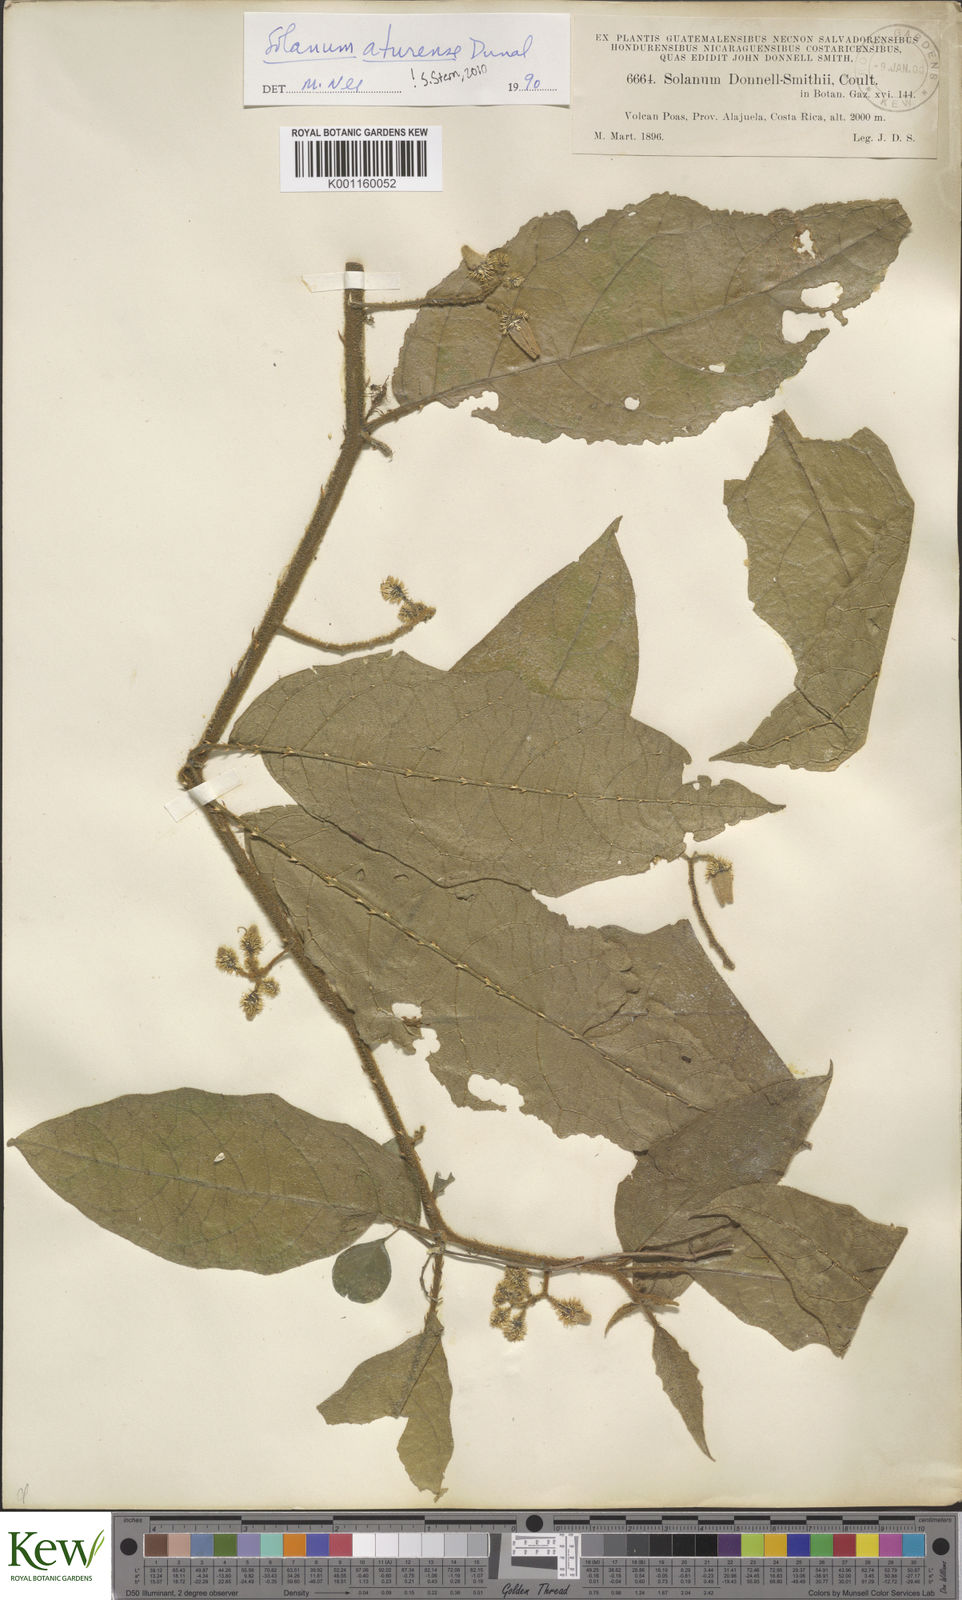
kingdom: Plantae
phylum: Tracheophyta
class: Magnoliopsida
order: Solanales
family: Solanaceae
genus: Solanum
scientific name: Solanum aturense
